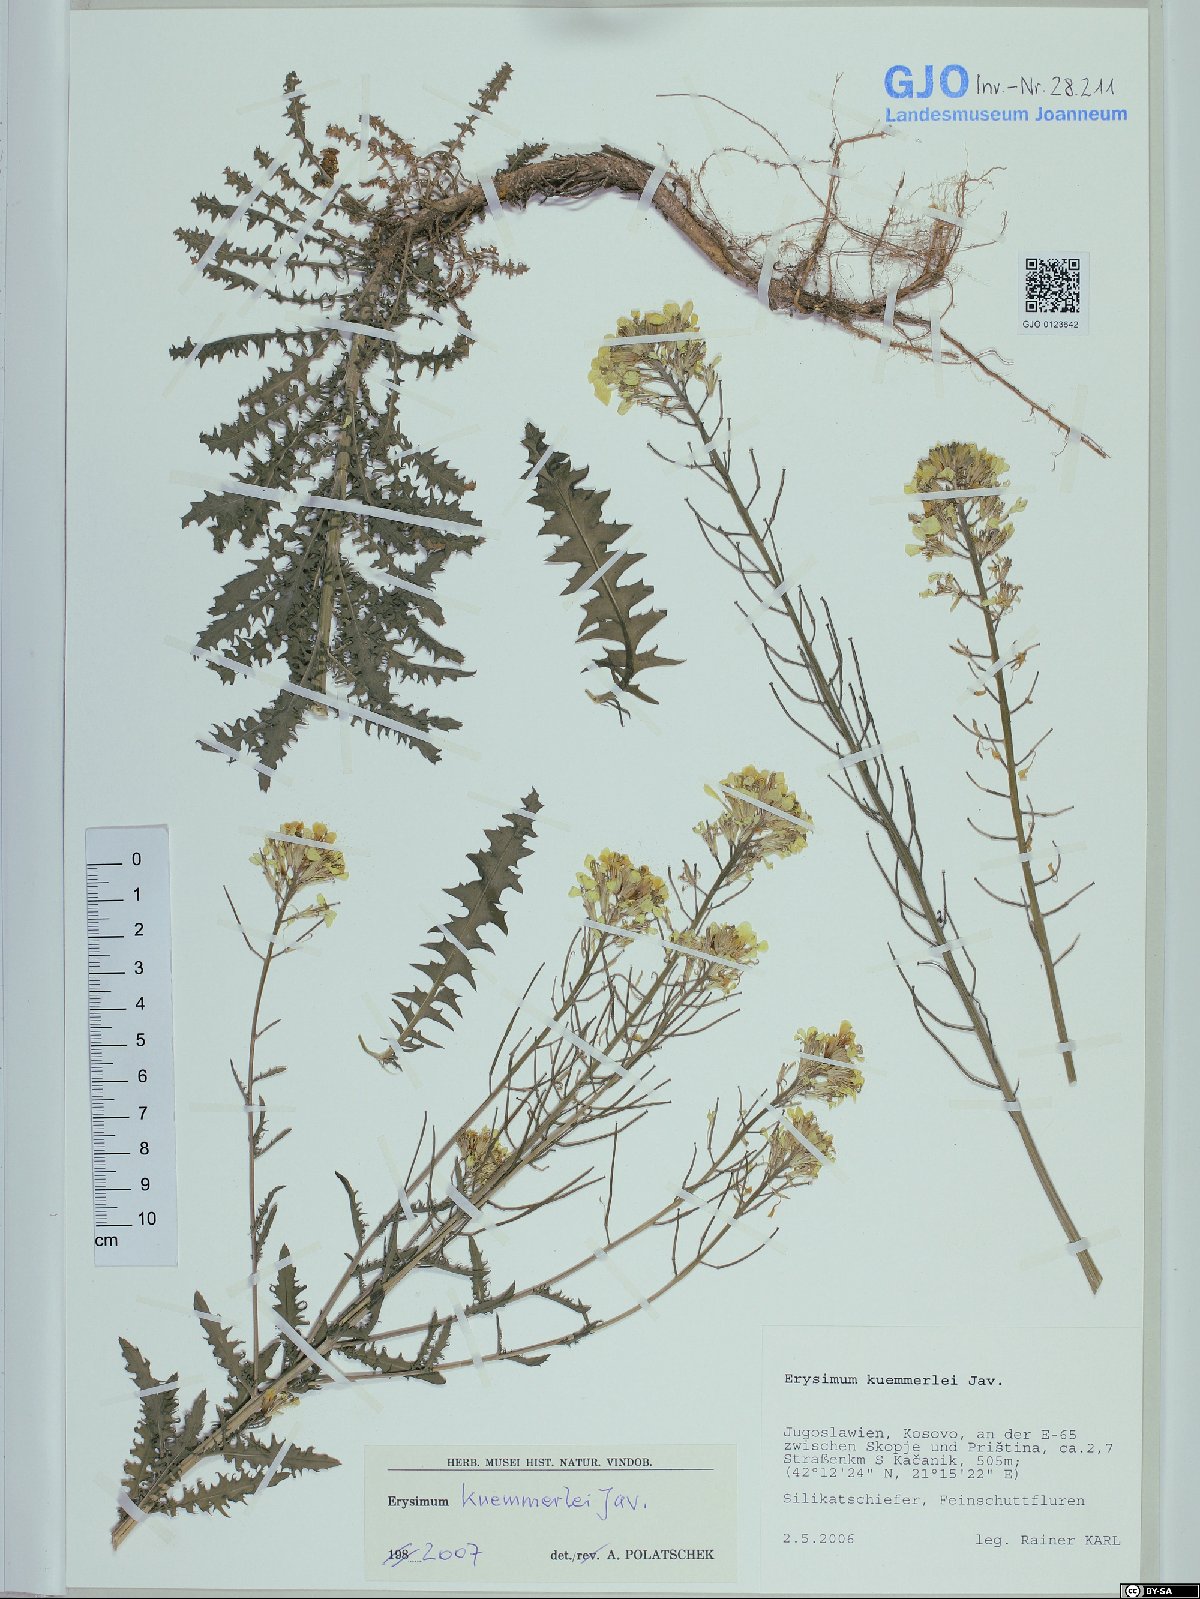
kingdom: Plantae
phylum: Tracheophyta
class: Magnoliopsida
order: Brassicales
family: Brassicaceae
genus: Erysimum
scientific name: Erysimum kuemmerlei
